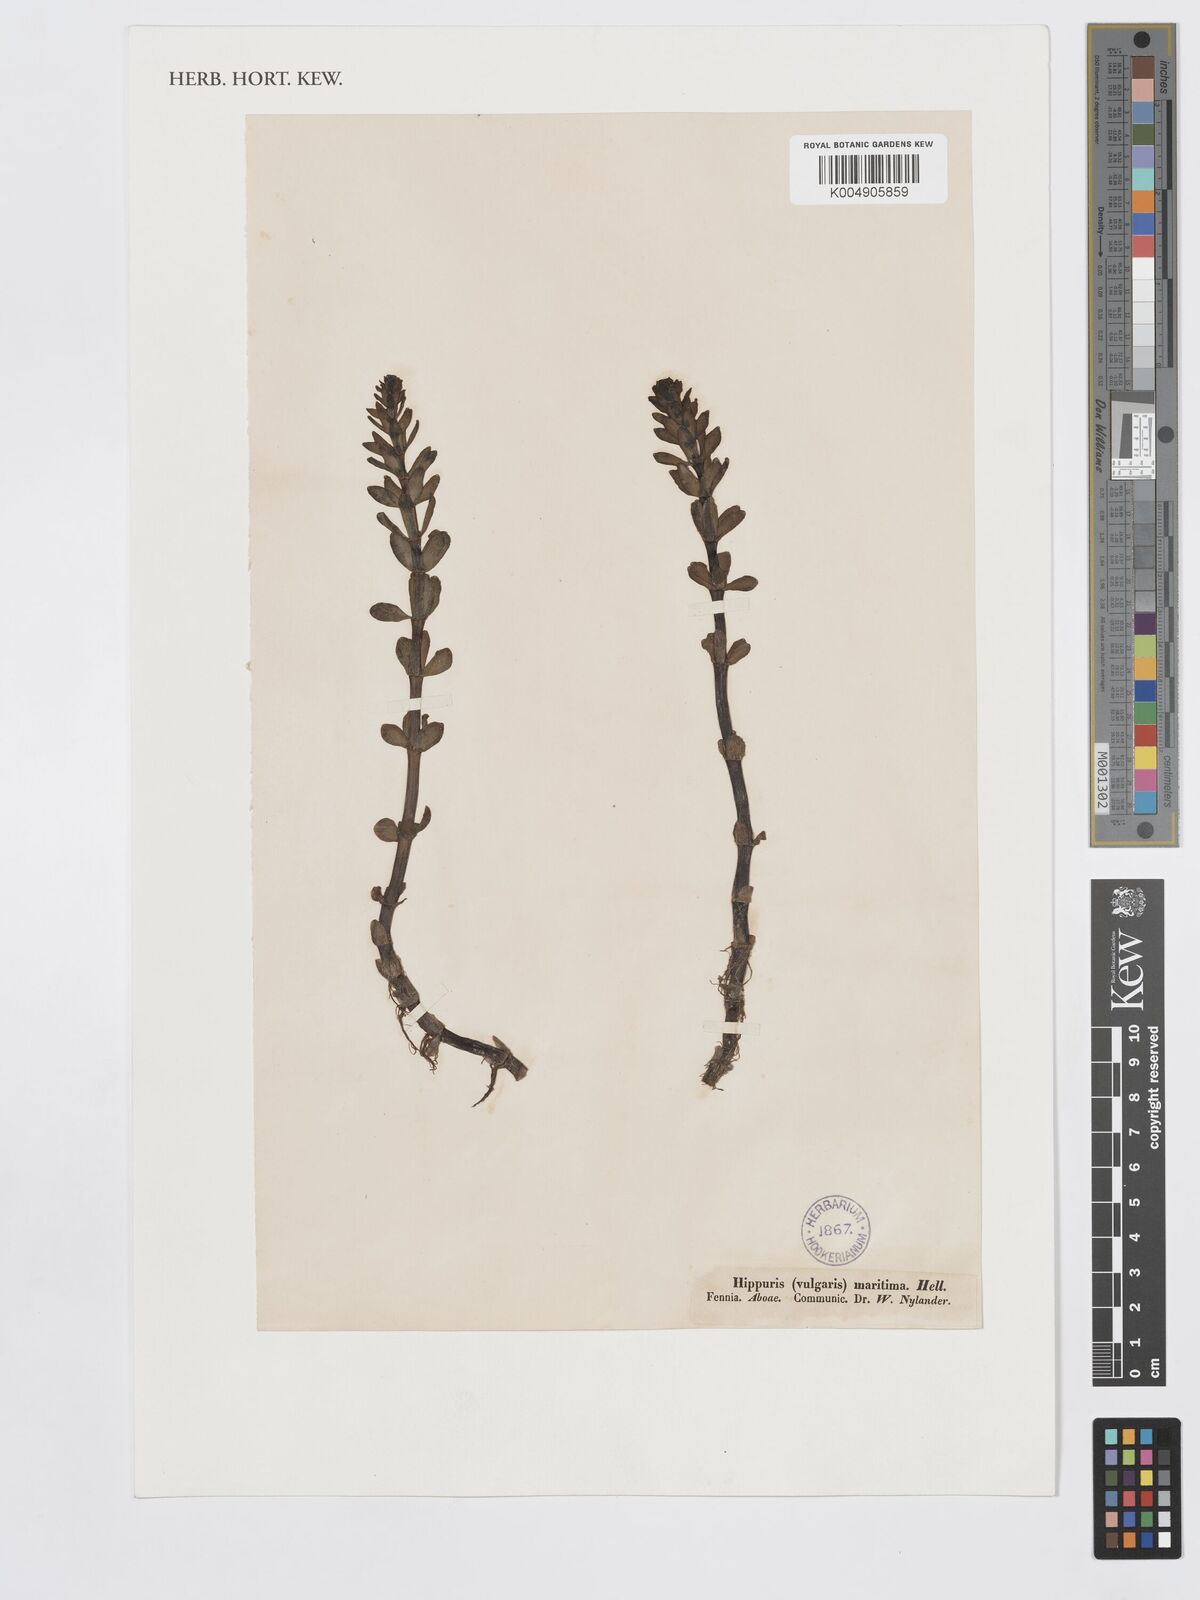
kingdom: Plantae
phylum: Tracheophyta
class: Magnoliopsida
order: Lamiales
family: Plantaginaceae
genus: Hippuris
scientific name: Hippuris tetraphylla
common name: Four-leaved mare's-tail
